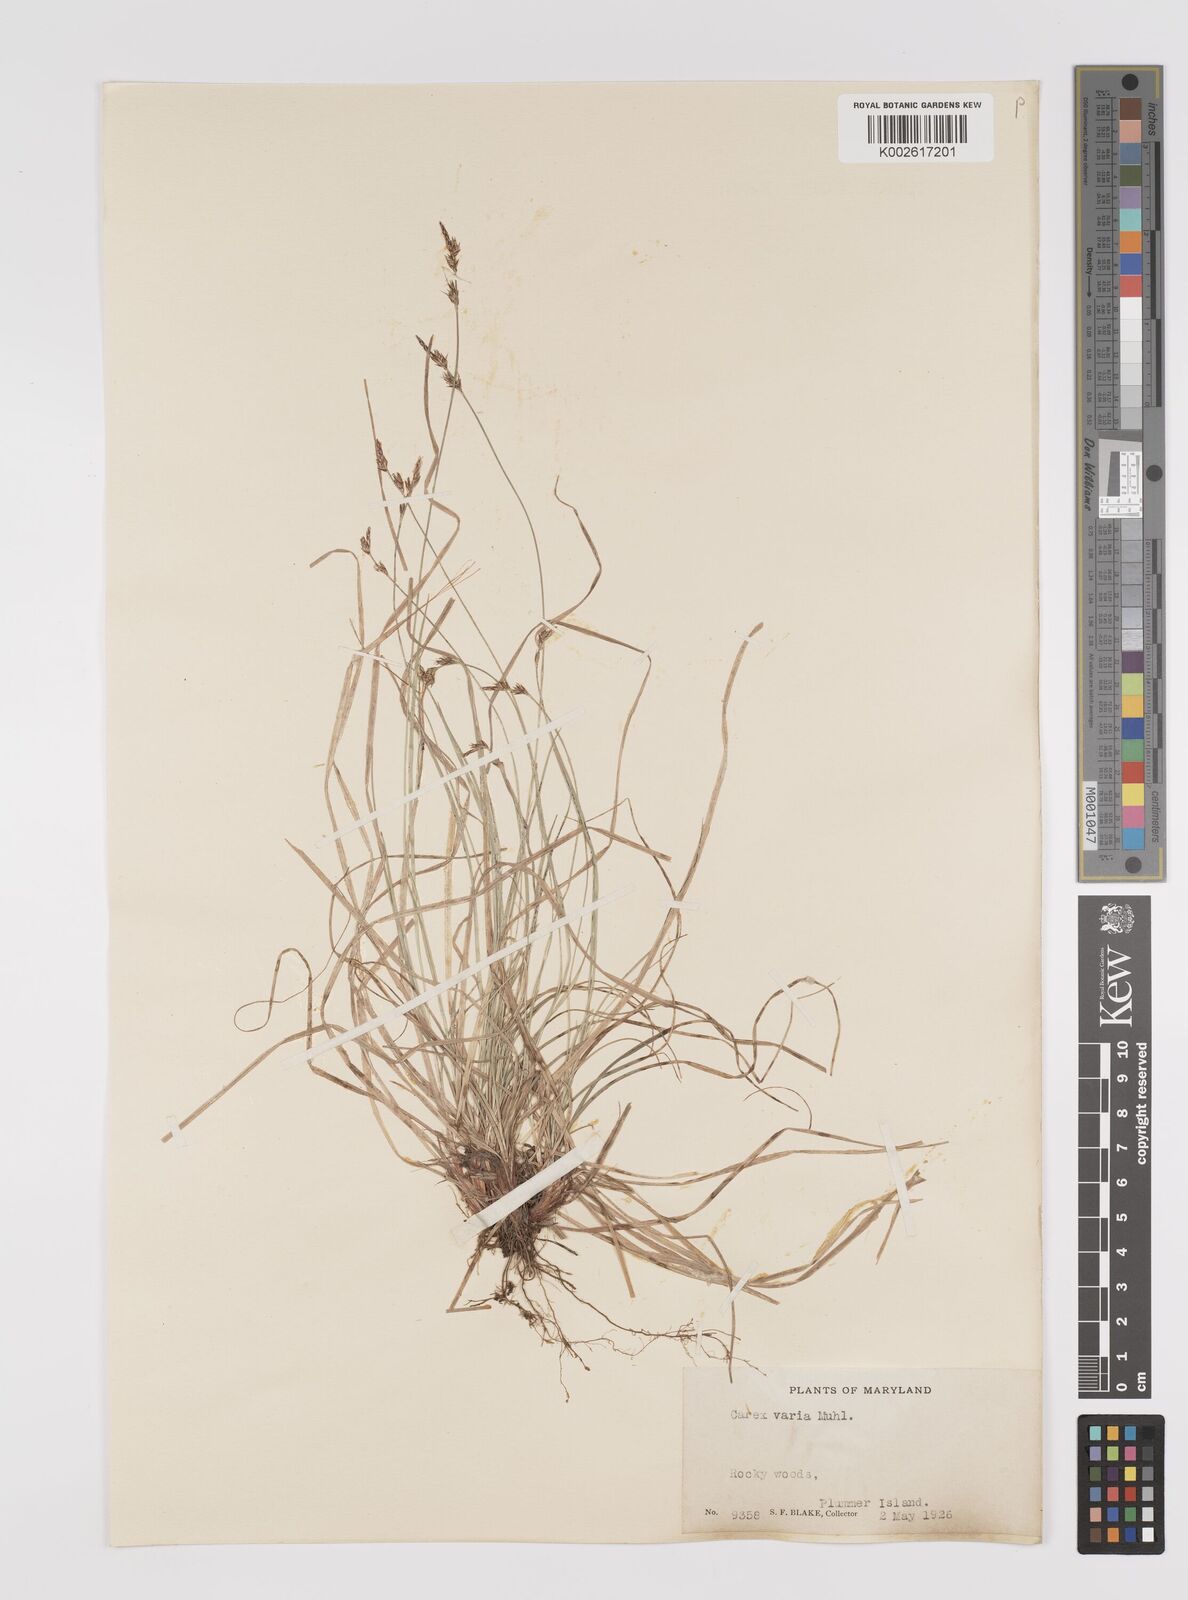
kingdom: Plantae
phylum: Tracheophyta
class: Liliopsida
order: Poales
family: Cyperaceae
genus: Carex
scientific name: Carex albicans
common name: Bellow-beaked sedge
